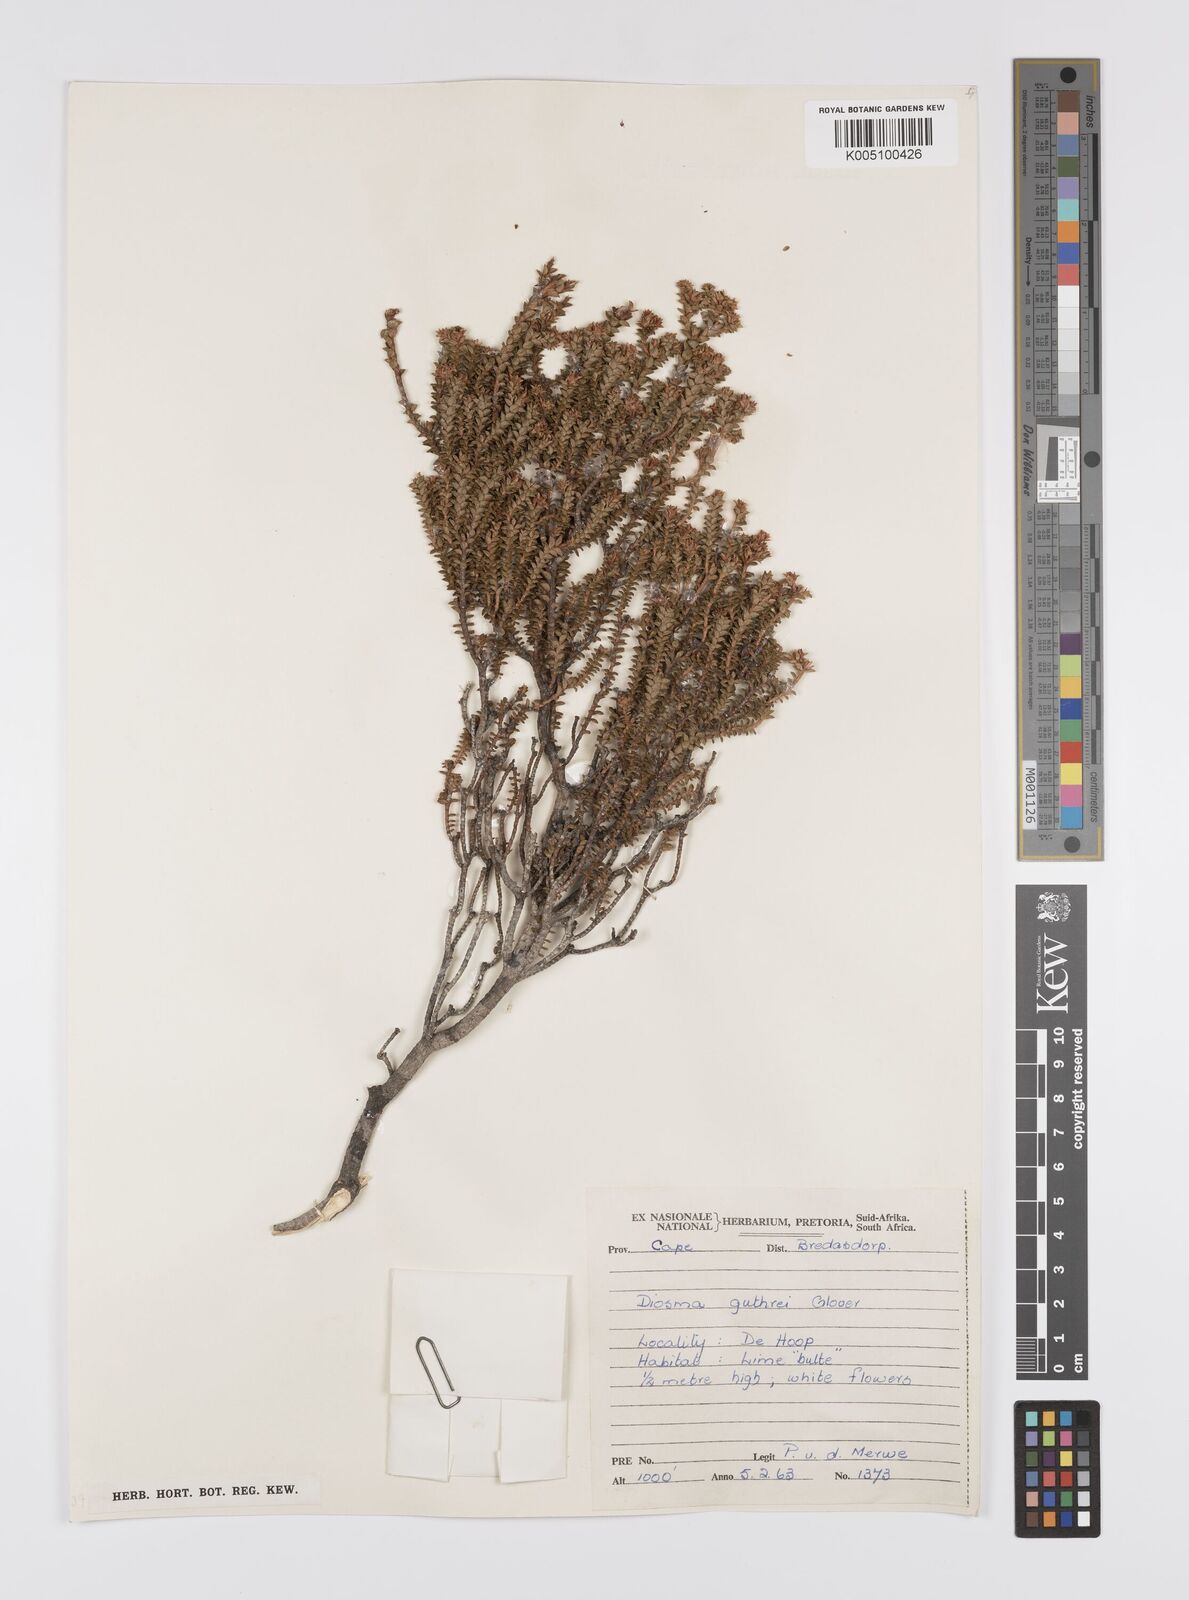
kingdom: Plantae
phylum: Tracheophyta
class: Magnoliopsida
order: Sapindales
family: Rutaceae
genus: Diosma
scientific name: Diosma guthriei
